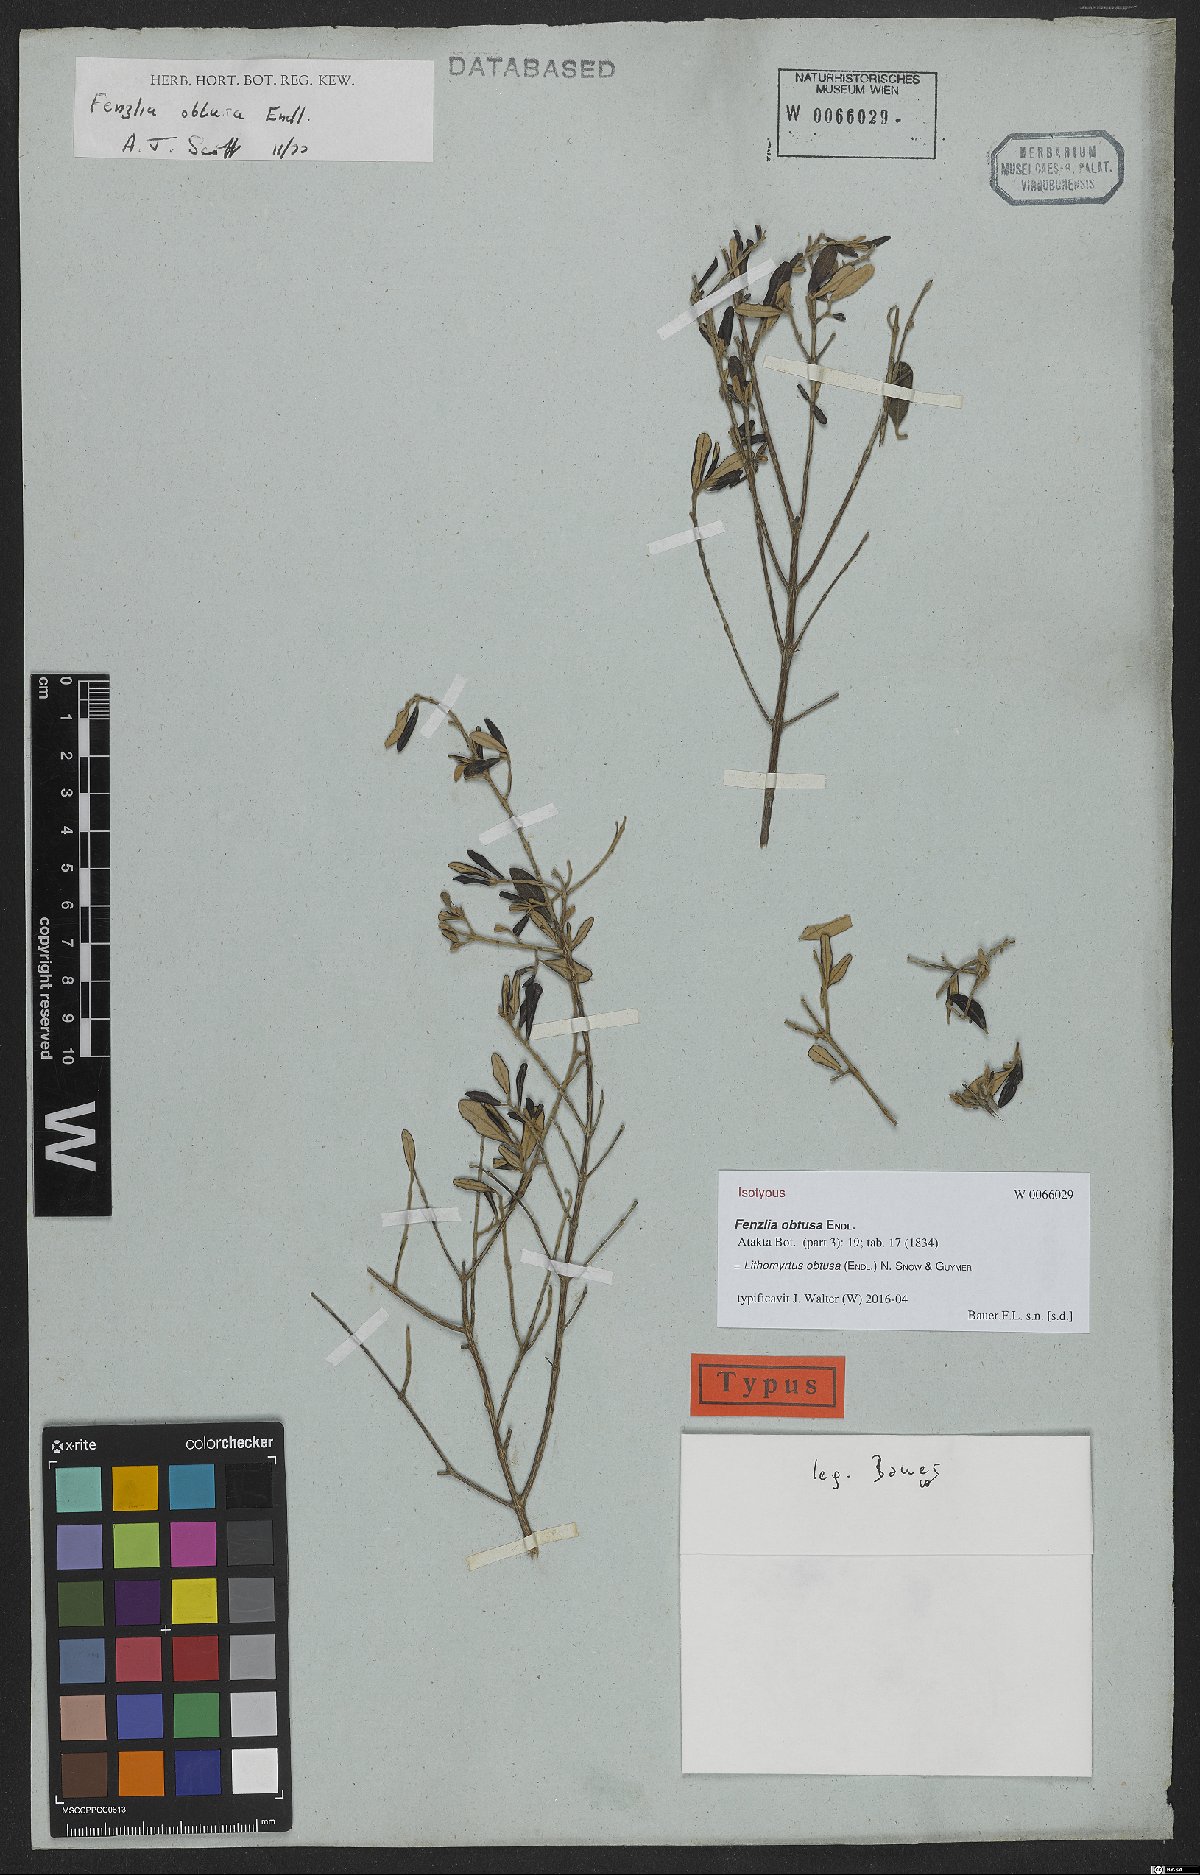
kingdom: Plantae
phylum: Tracheophyta
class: Magnoliopsida
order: Myrtales
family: Myrtaceae
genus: Lithomyrtus
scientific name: Lithomyrtus obtusa
